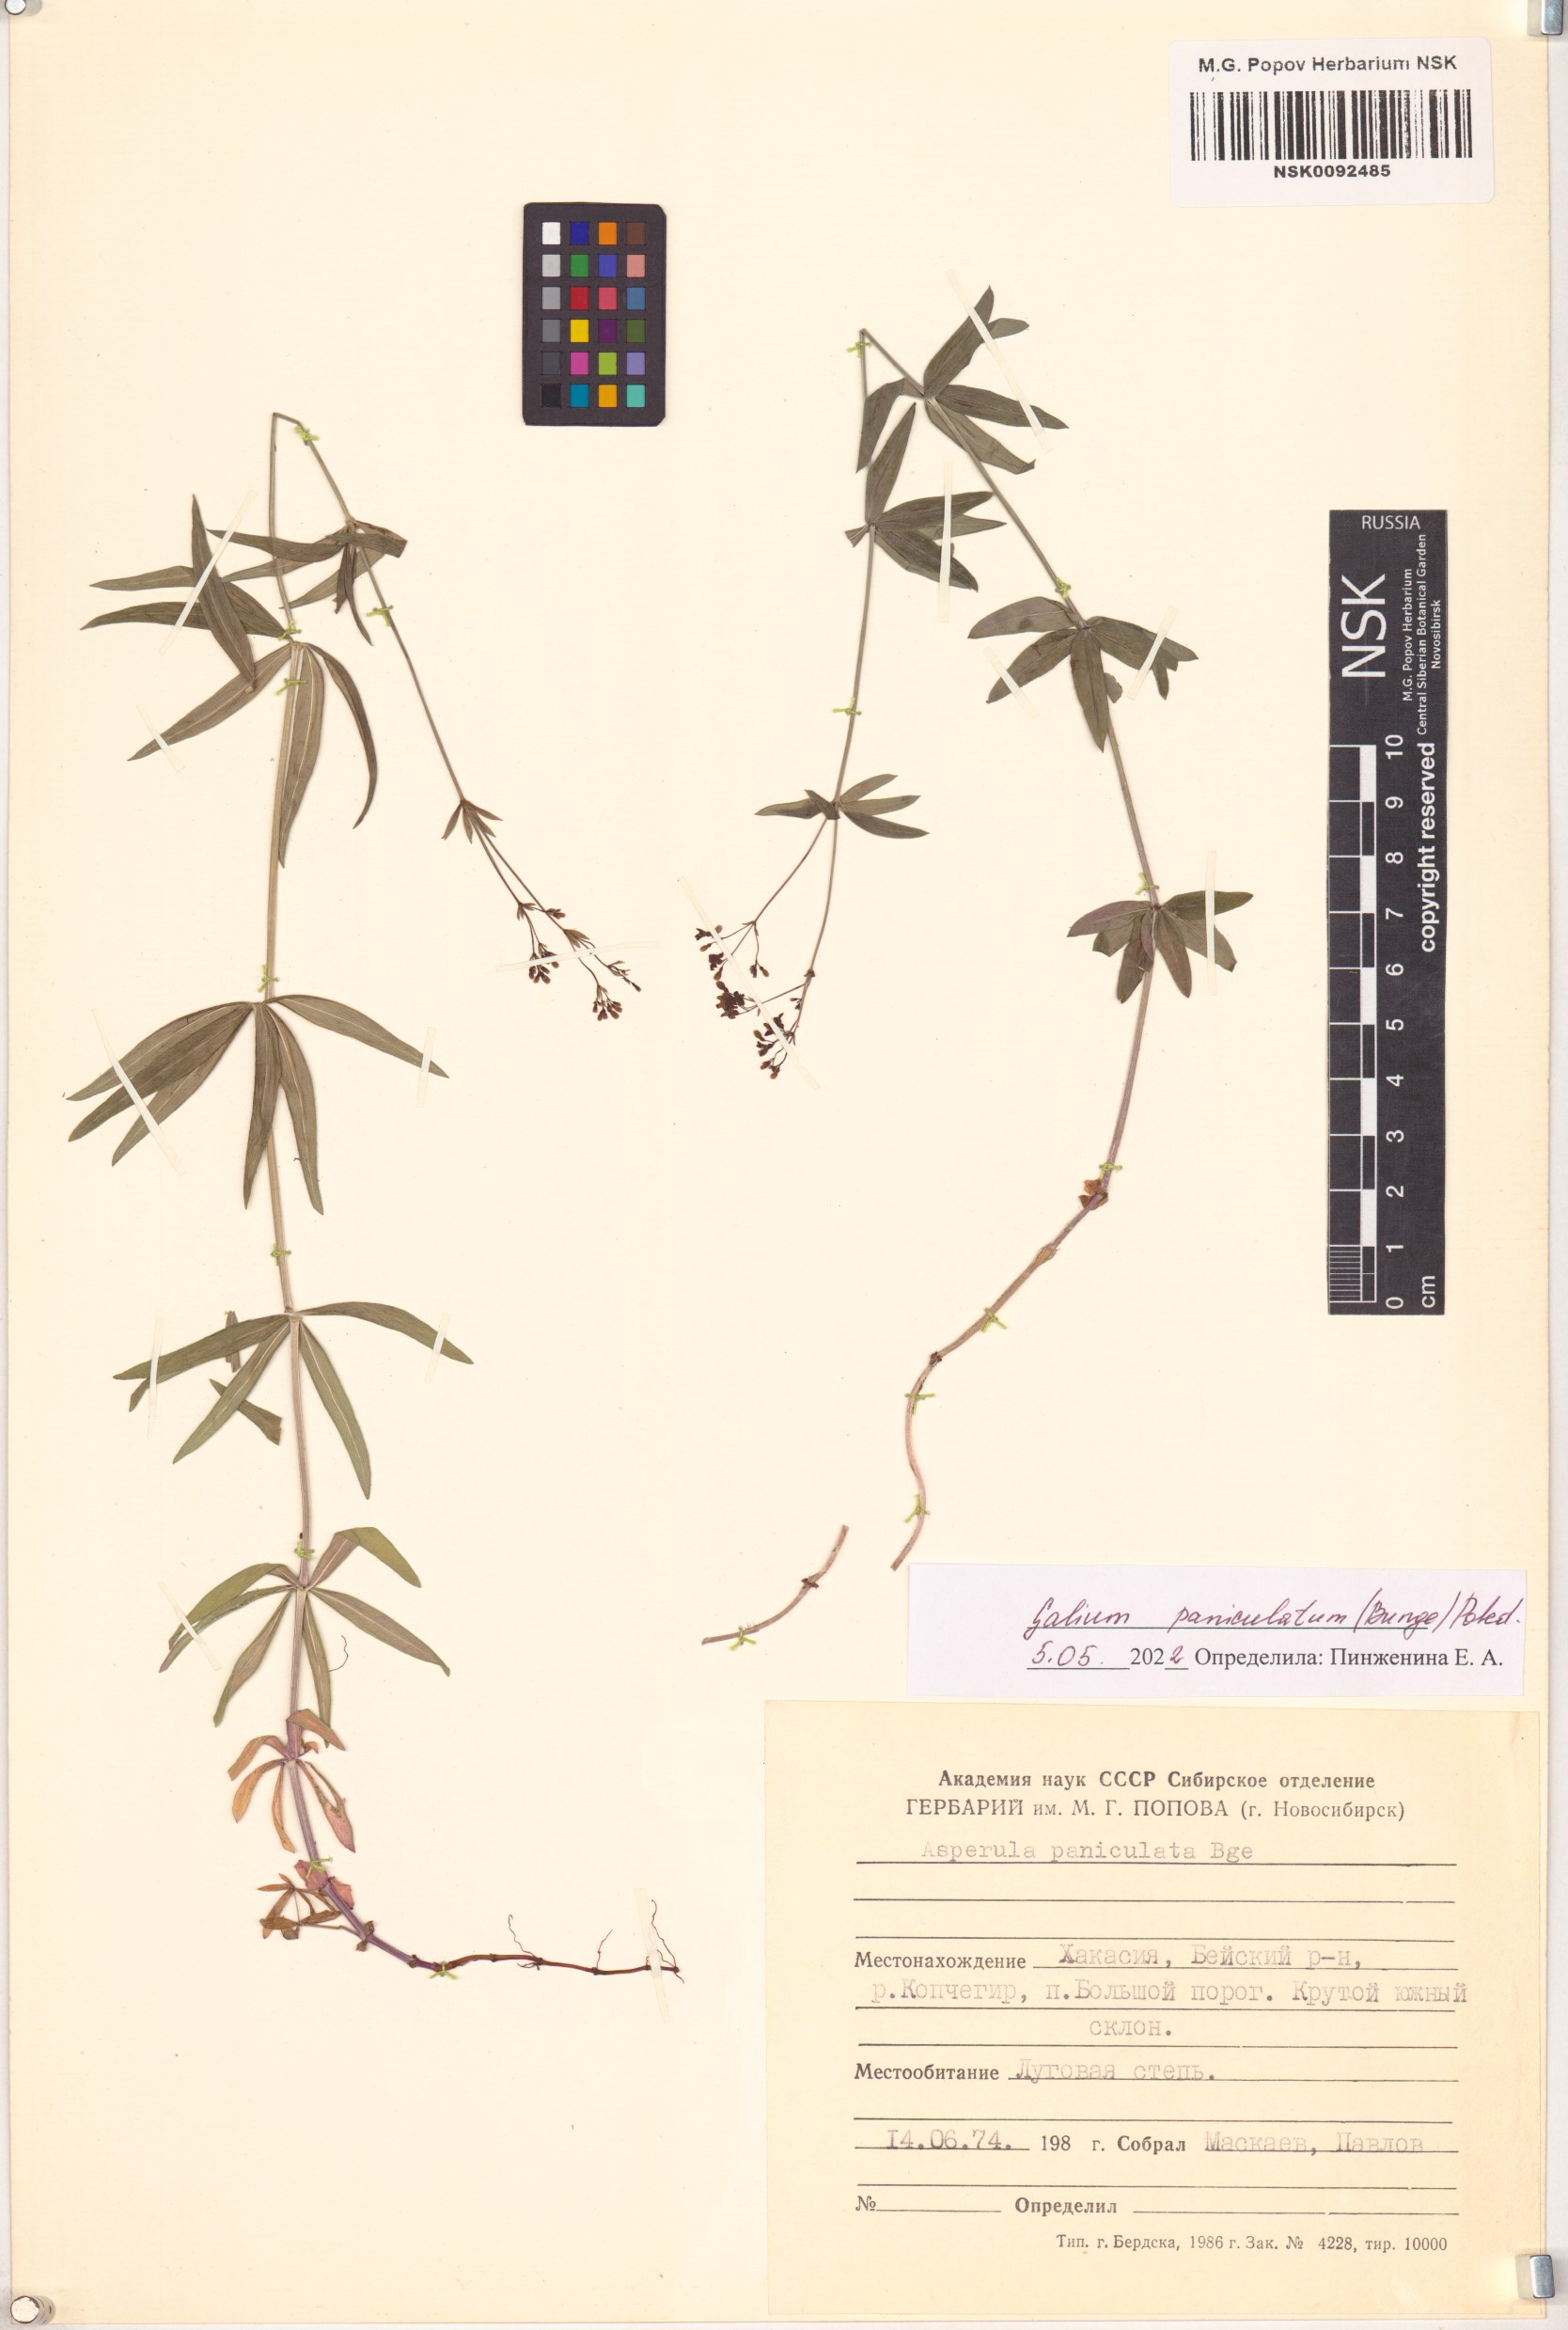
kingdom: Plantae
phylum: Tracheophyta
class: Magnoliopsida
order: Gentianales
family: Rubiaceae
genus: Galium
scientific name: Galium paniculatum
